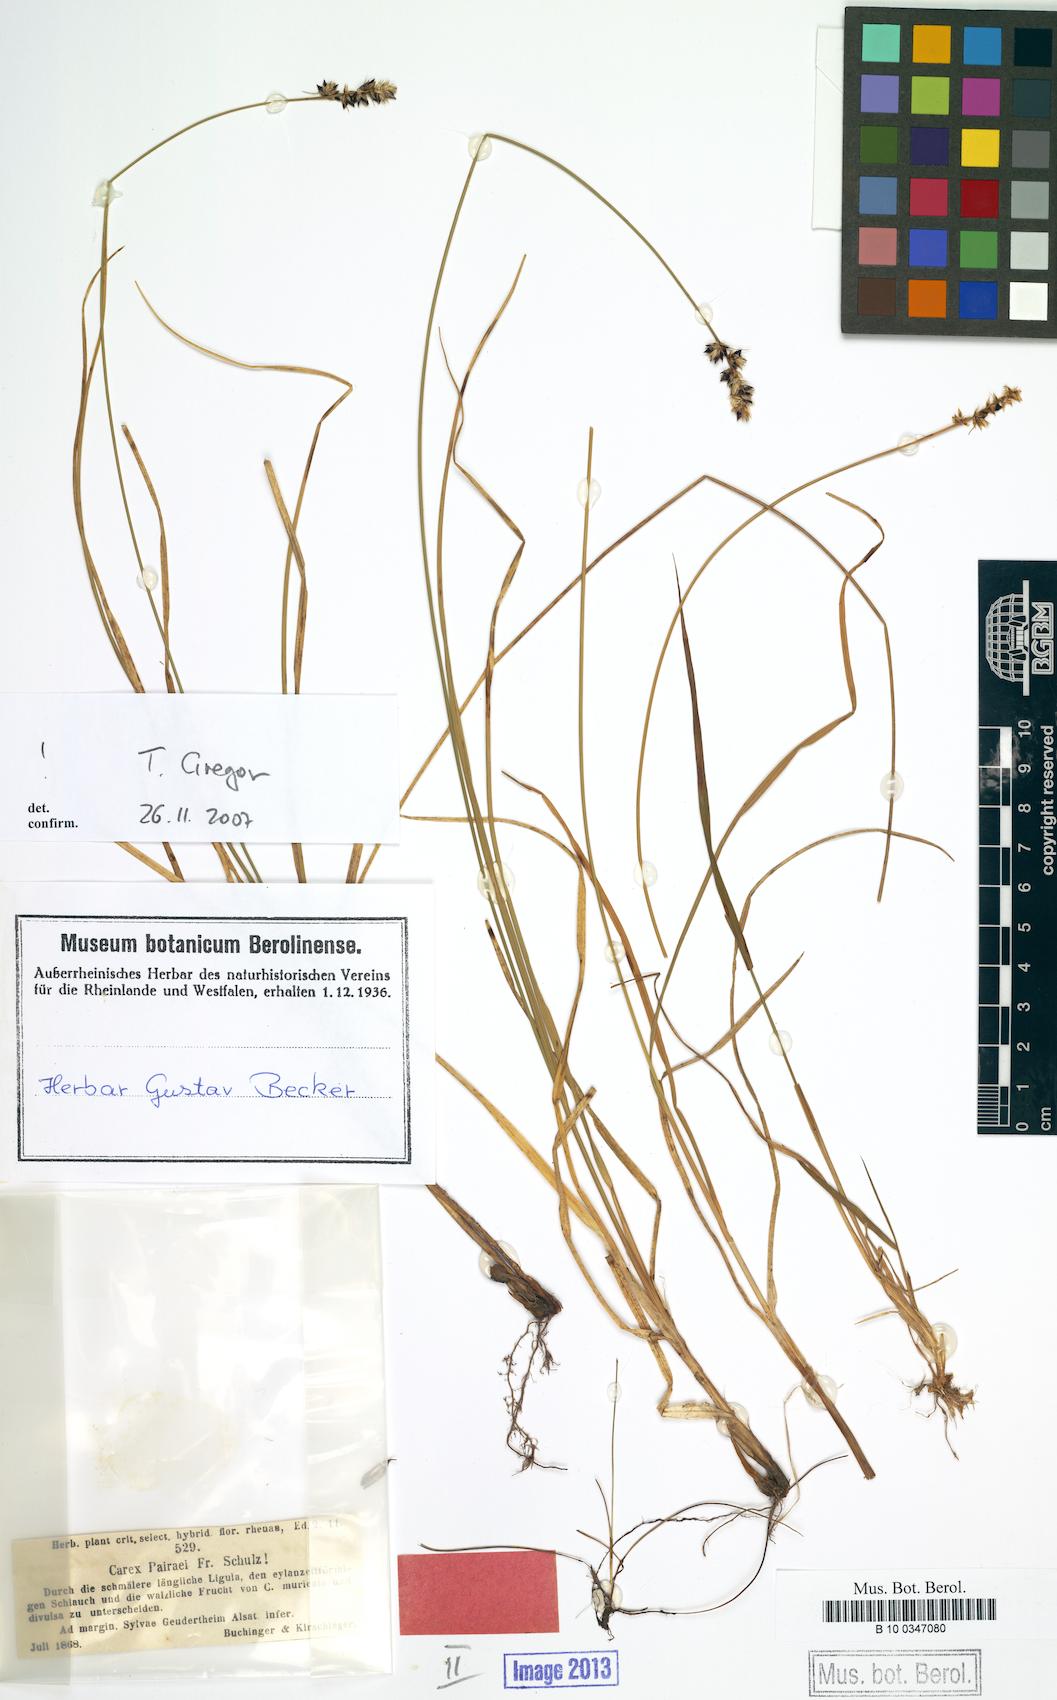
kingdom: Plantae
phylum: Tracheophyta
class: Liliopsida
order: Poales
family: Cyperaceae
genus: Carex
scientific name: Carex pairae
